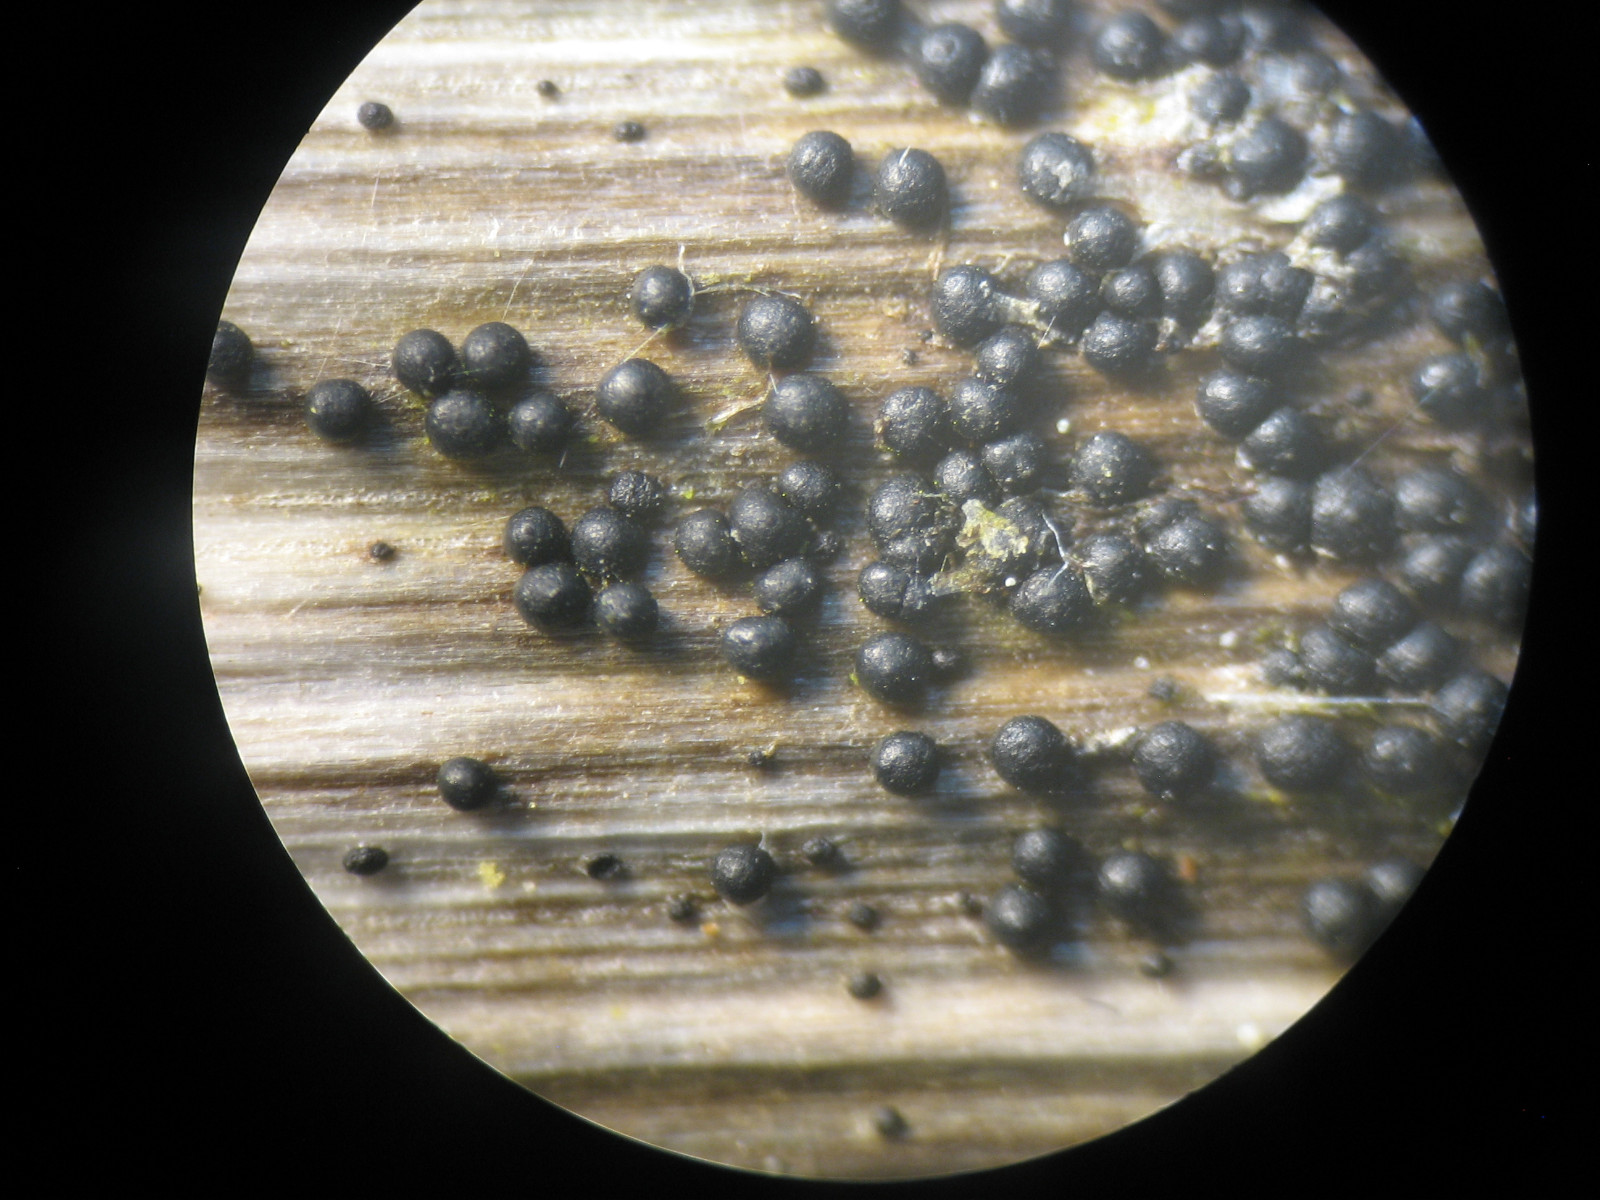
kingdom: Fungi
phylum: Ascomycota
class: Dothideomycetes
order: Pleosporales
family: Leptosphaeriaceae
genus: Plenodomus
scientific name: Plenodomus libanotidis
